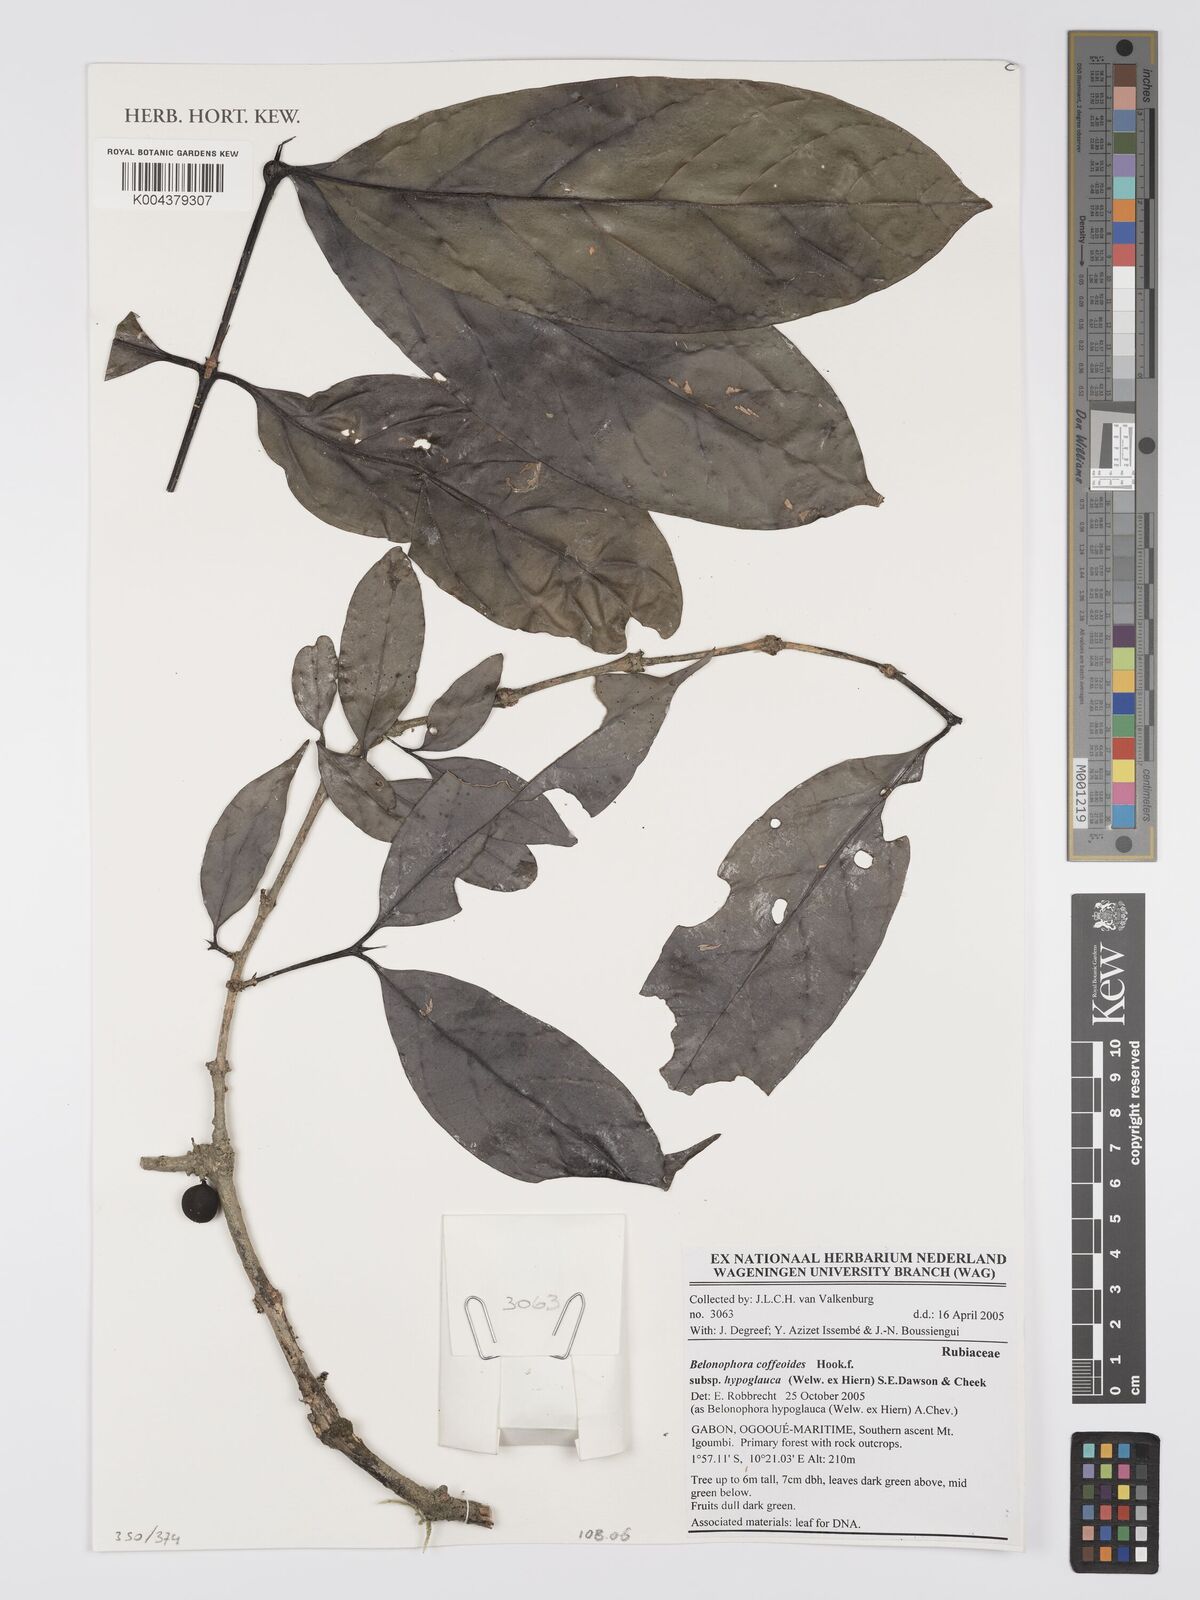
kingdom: Plantae
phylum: Tracheophyta
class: Magnoliopsida
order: Gentianales
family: Rubiaceae
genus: Belonophora
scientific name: Belonophora coffeoides
